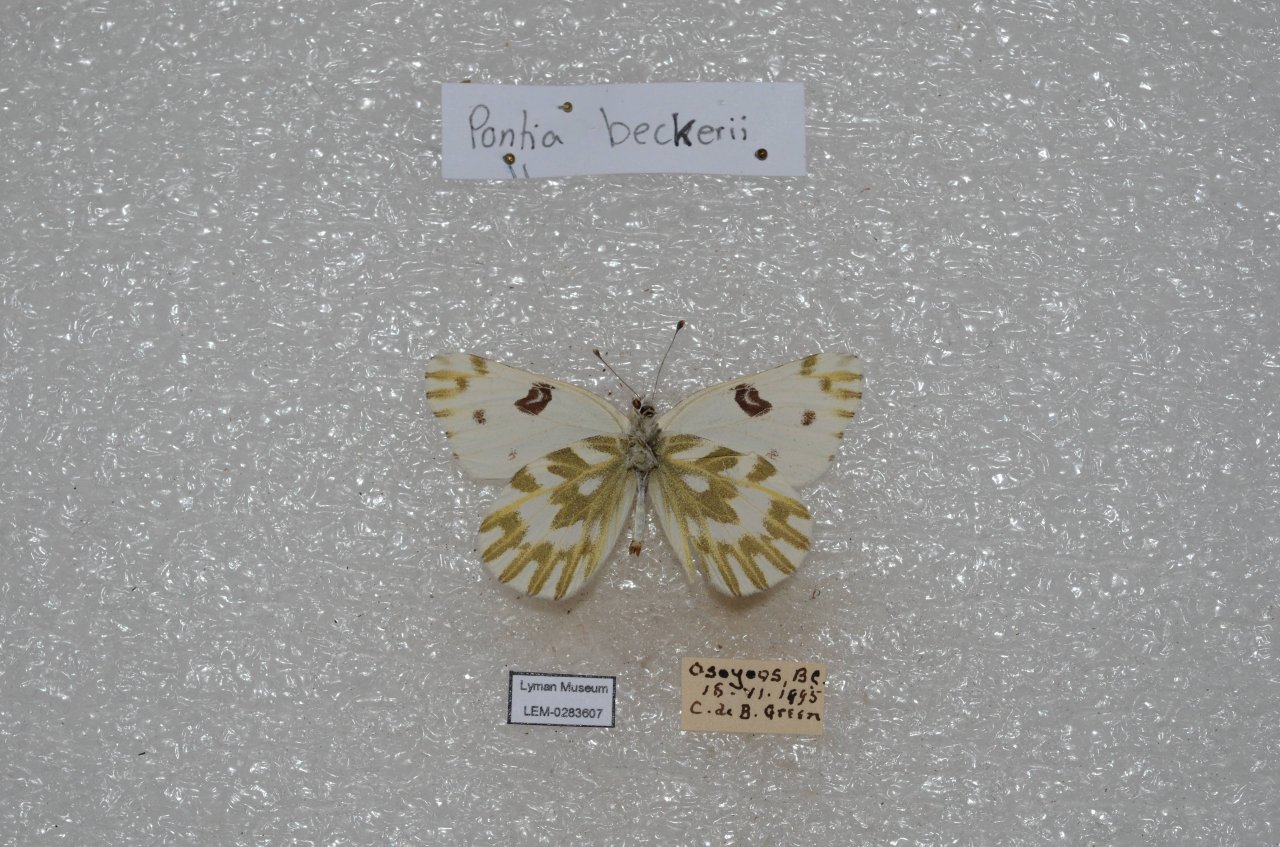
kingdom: Animalia
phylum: Arthropoda
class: Insecta
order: Lepidoptera
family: Pieridae
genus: Pontia
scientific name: Pontia beckerii
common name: Becker's White
